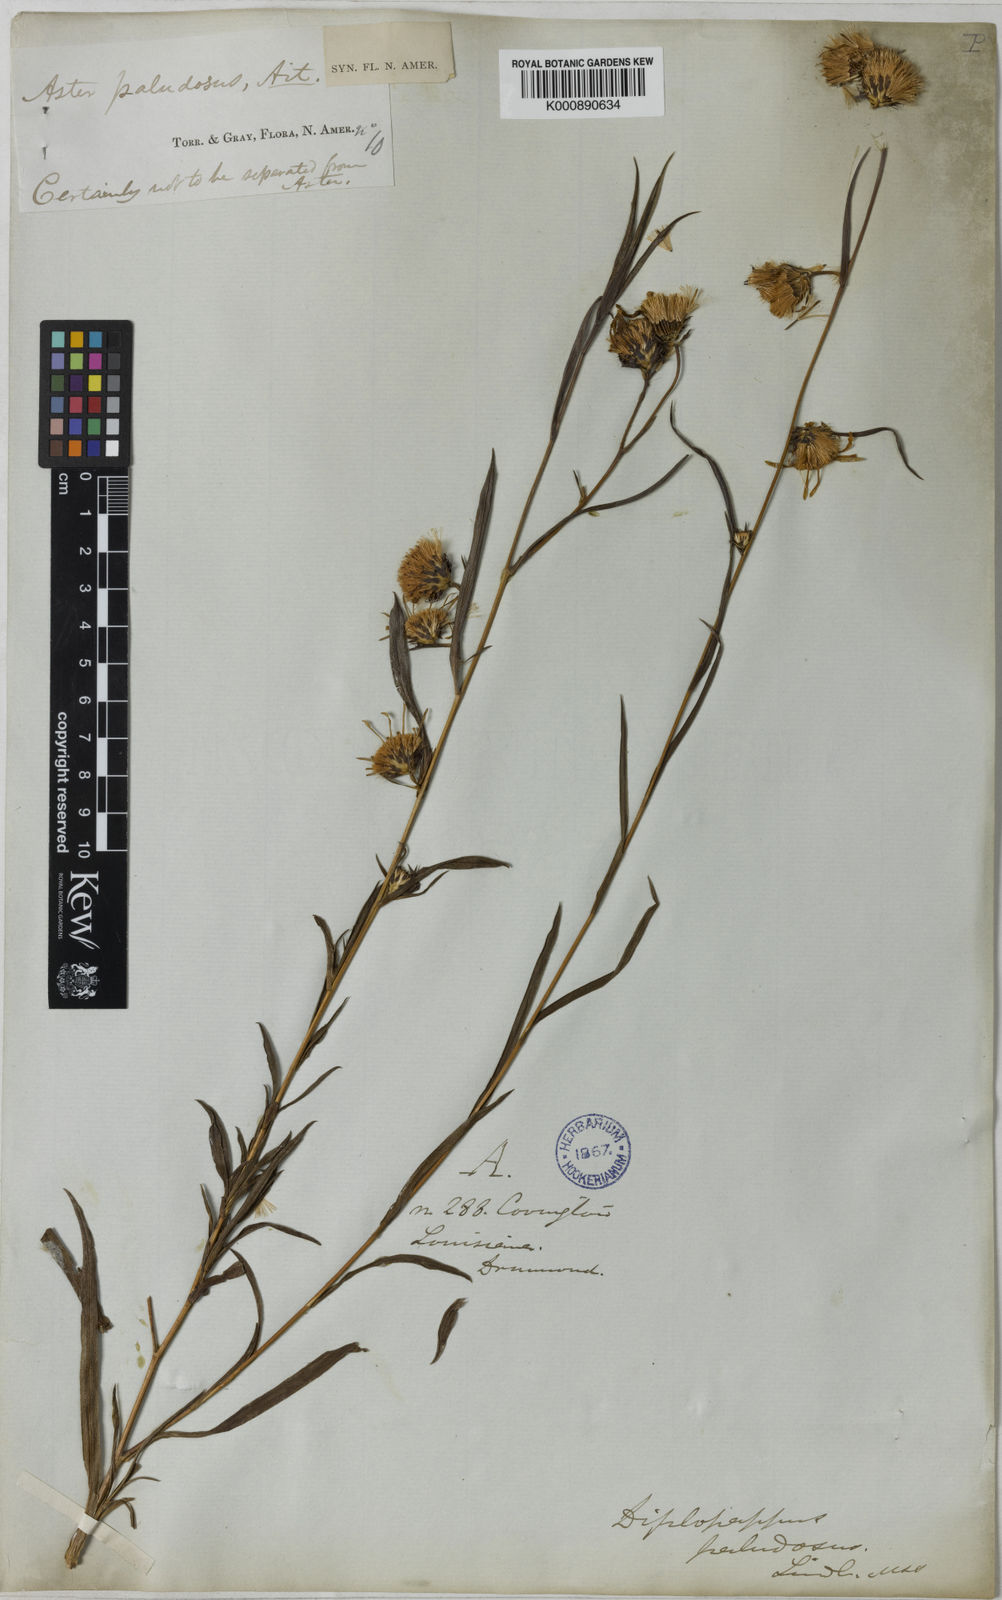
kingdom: Plantae
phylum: Tracheophyta
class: Magnoliopsida
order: Asterales
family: Asteraceae
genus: Eurybia
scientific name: Eurybia paludosa
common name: Southern swamp aster
